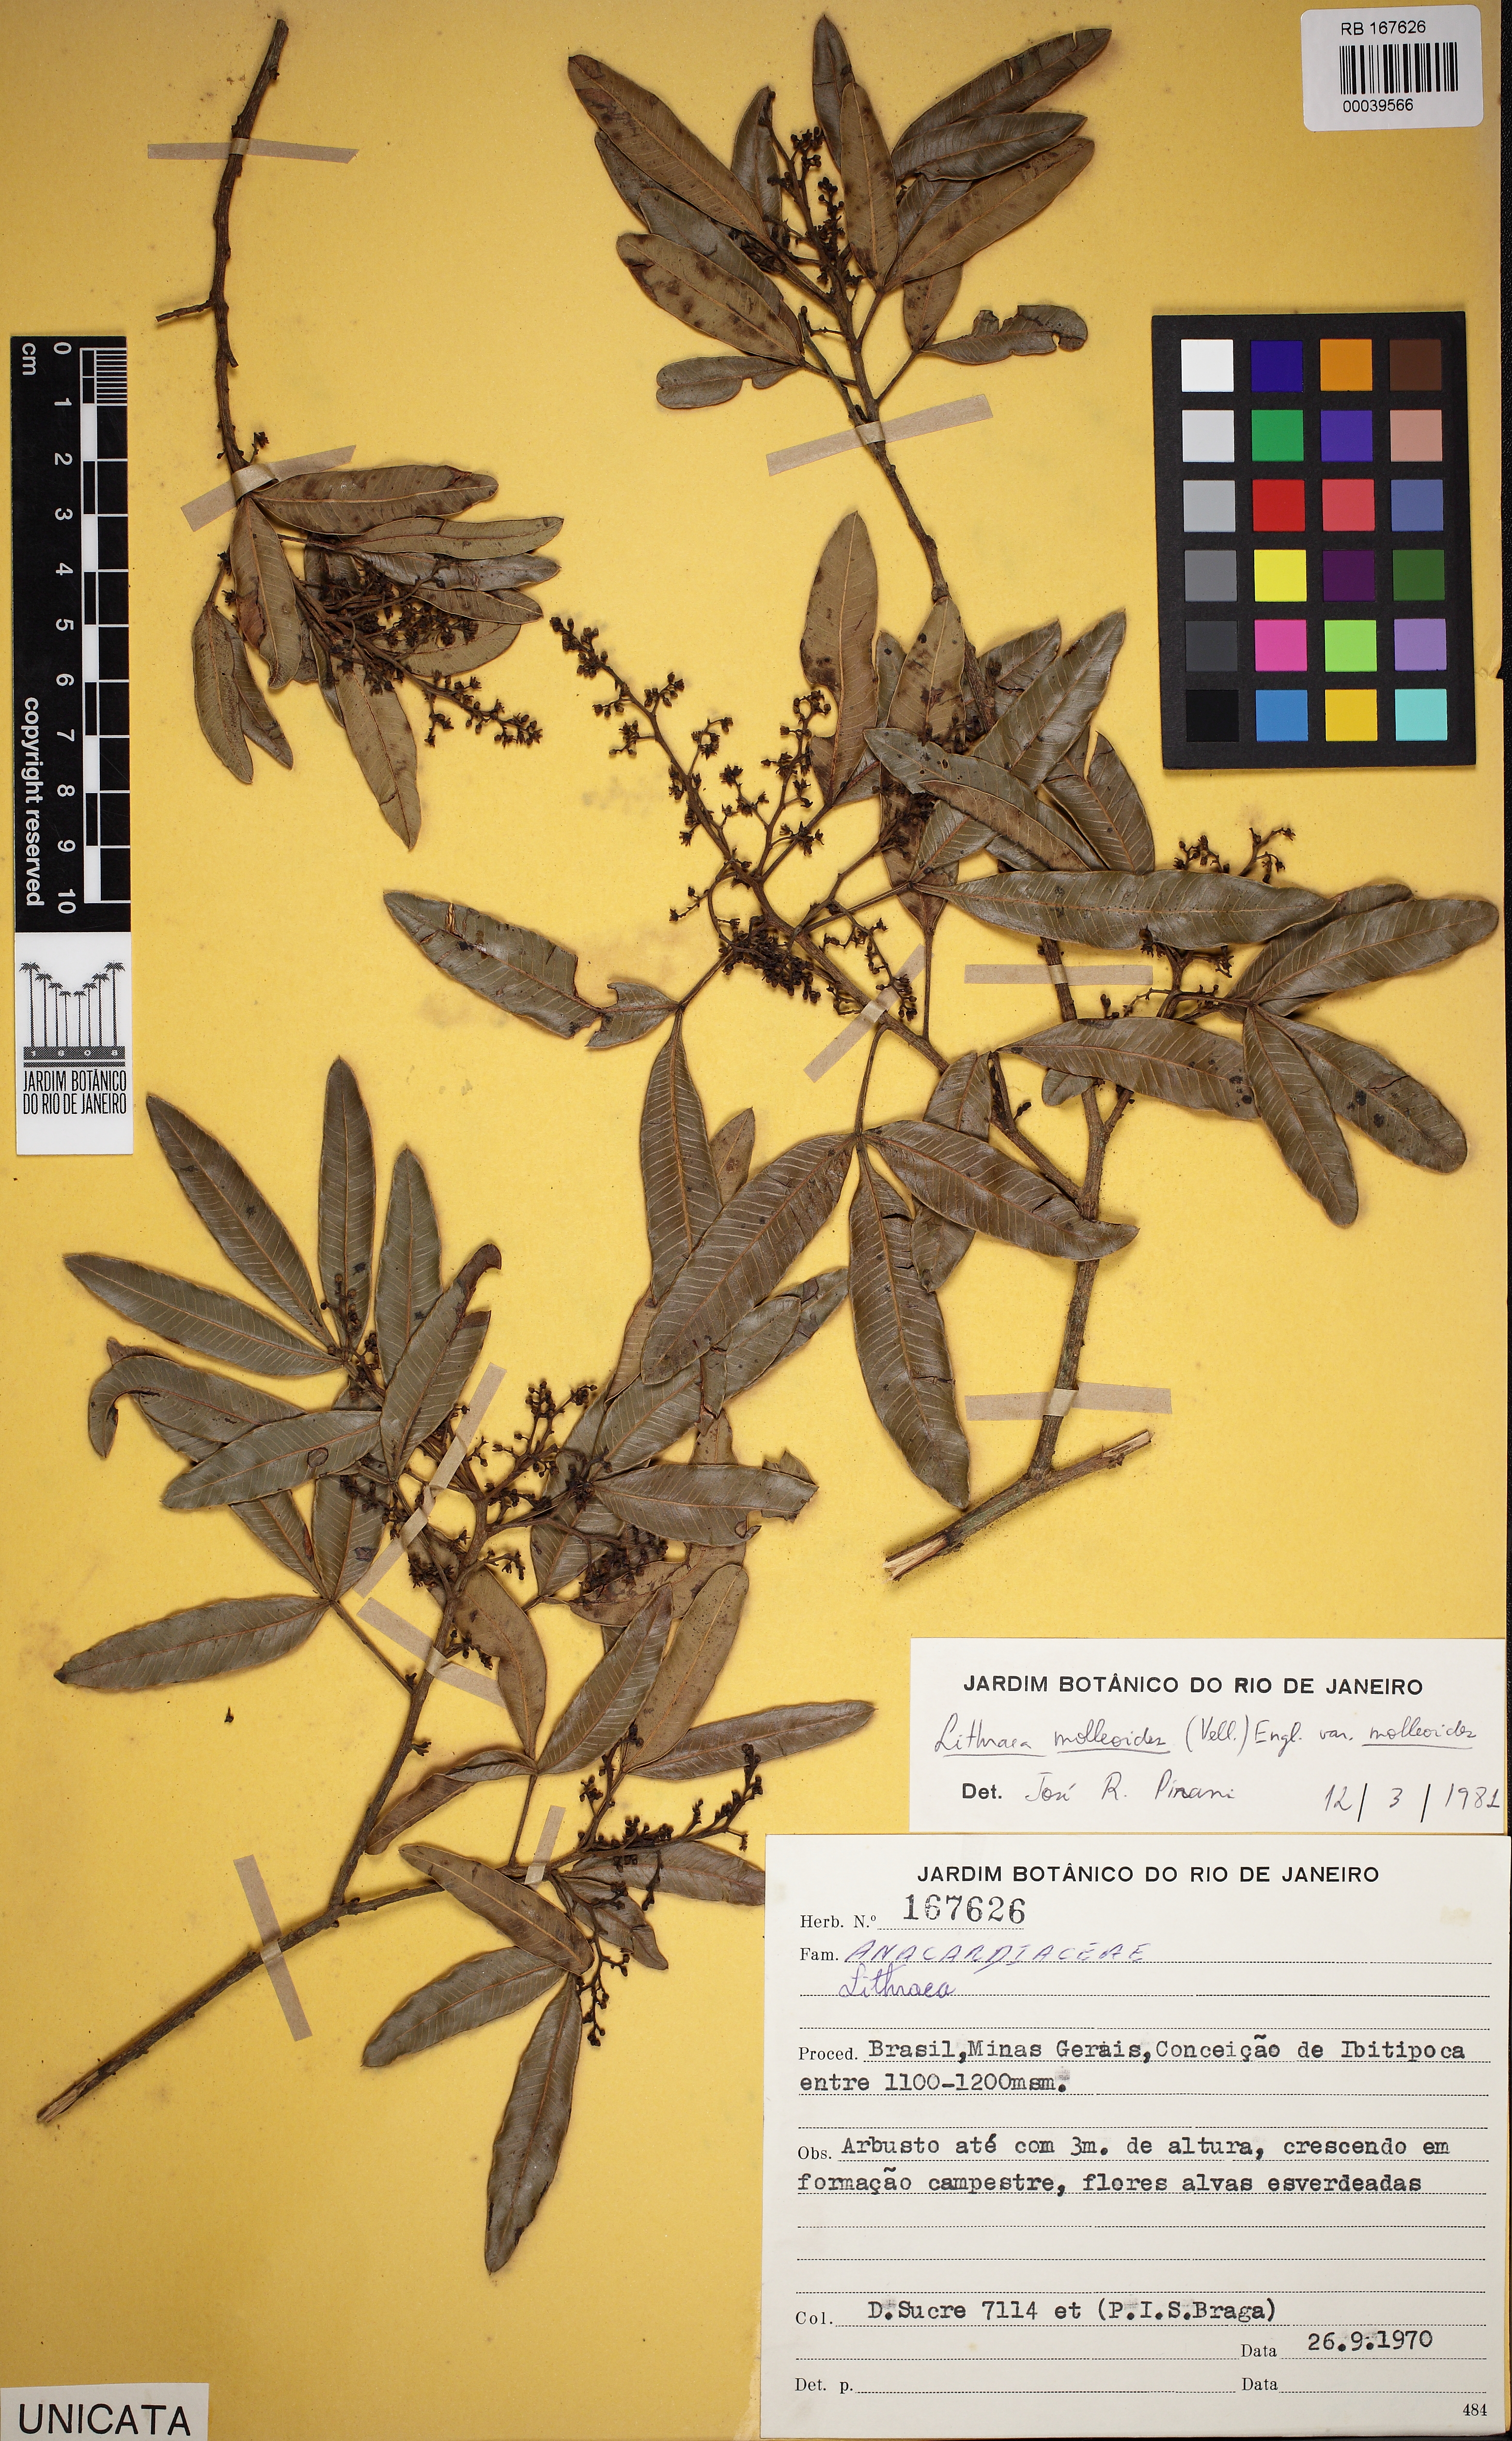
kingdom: Plantae
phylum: Tracheophyta
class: Magnoliopsida
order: Sapindales
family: Anacardiaceae
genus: Lithraea
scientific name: Lithraea molleoides
